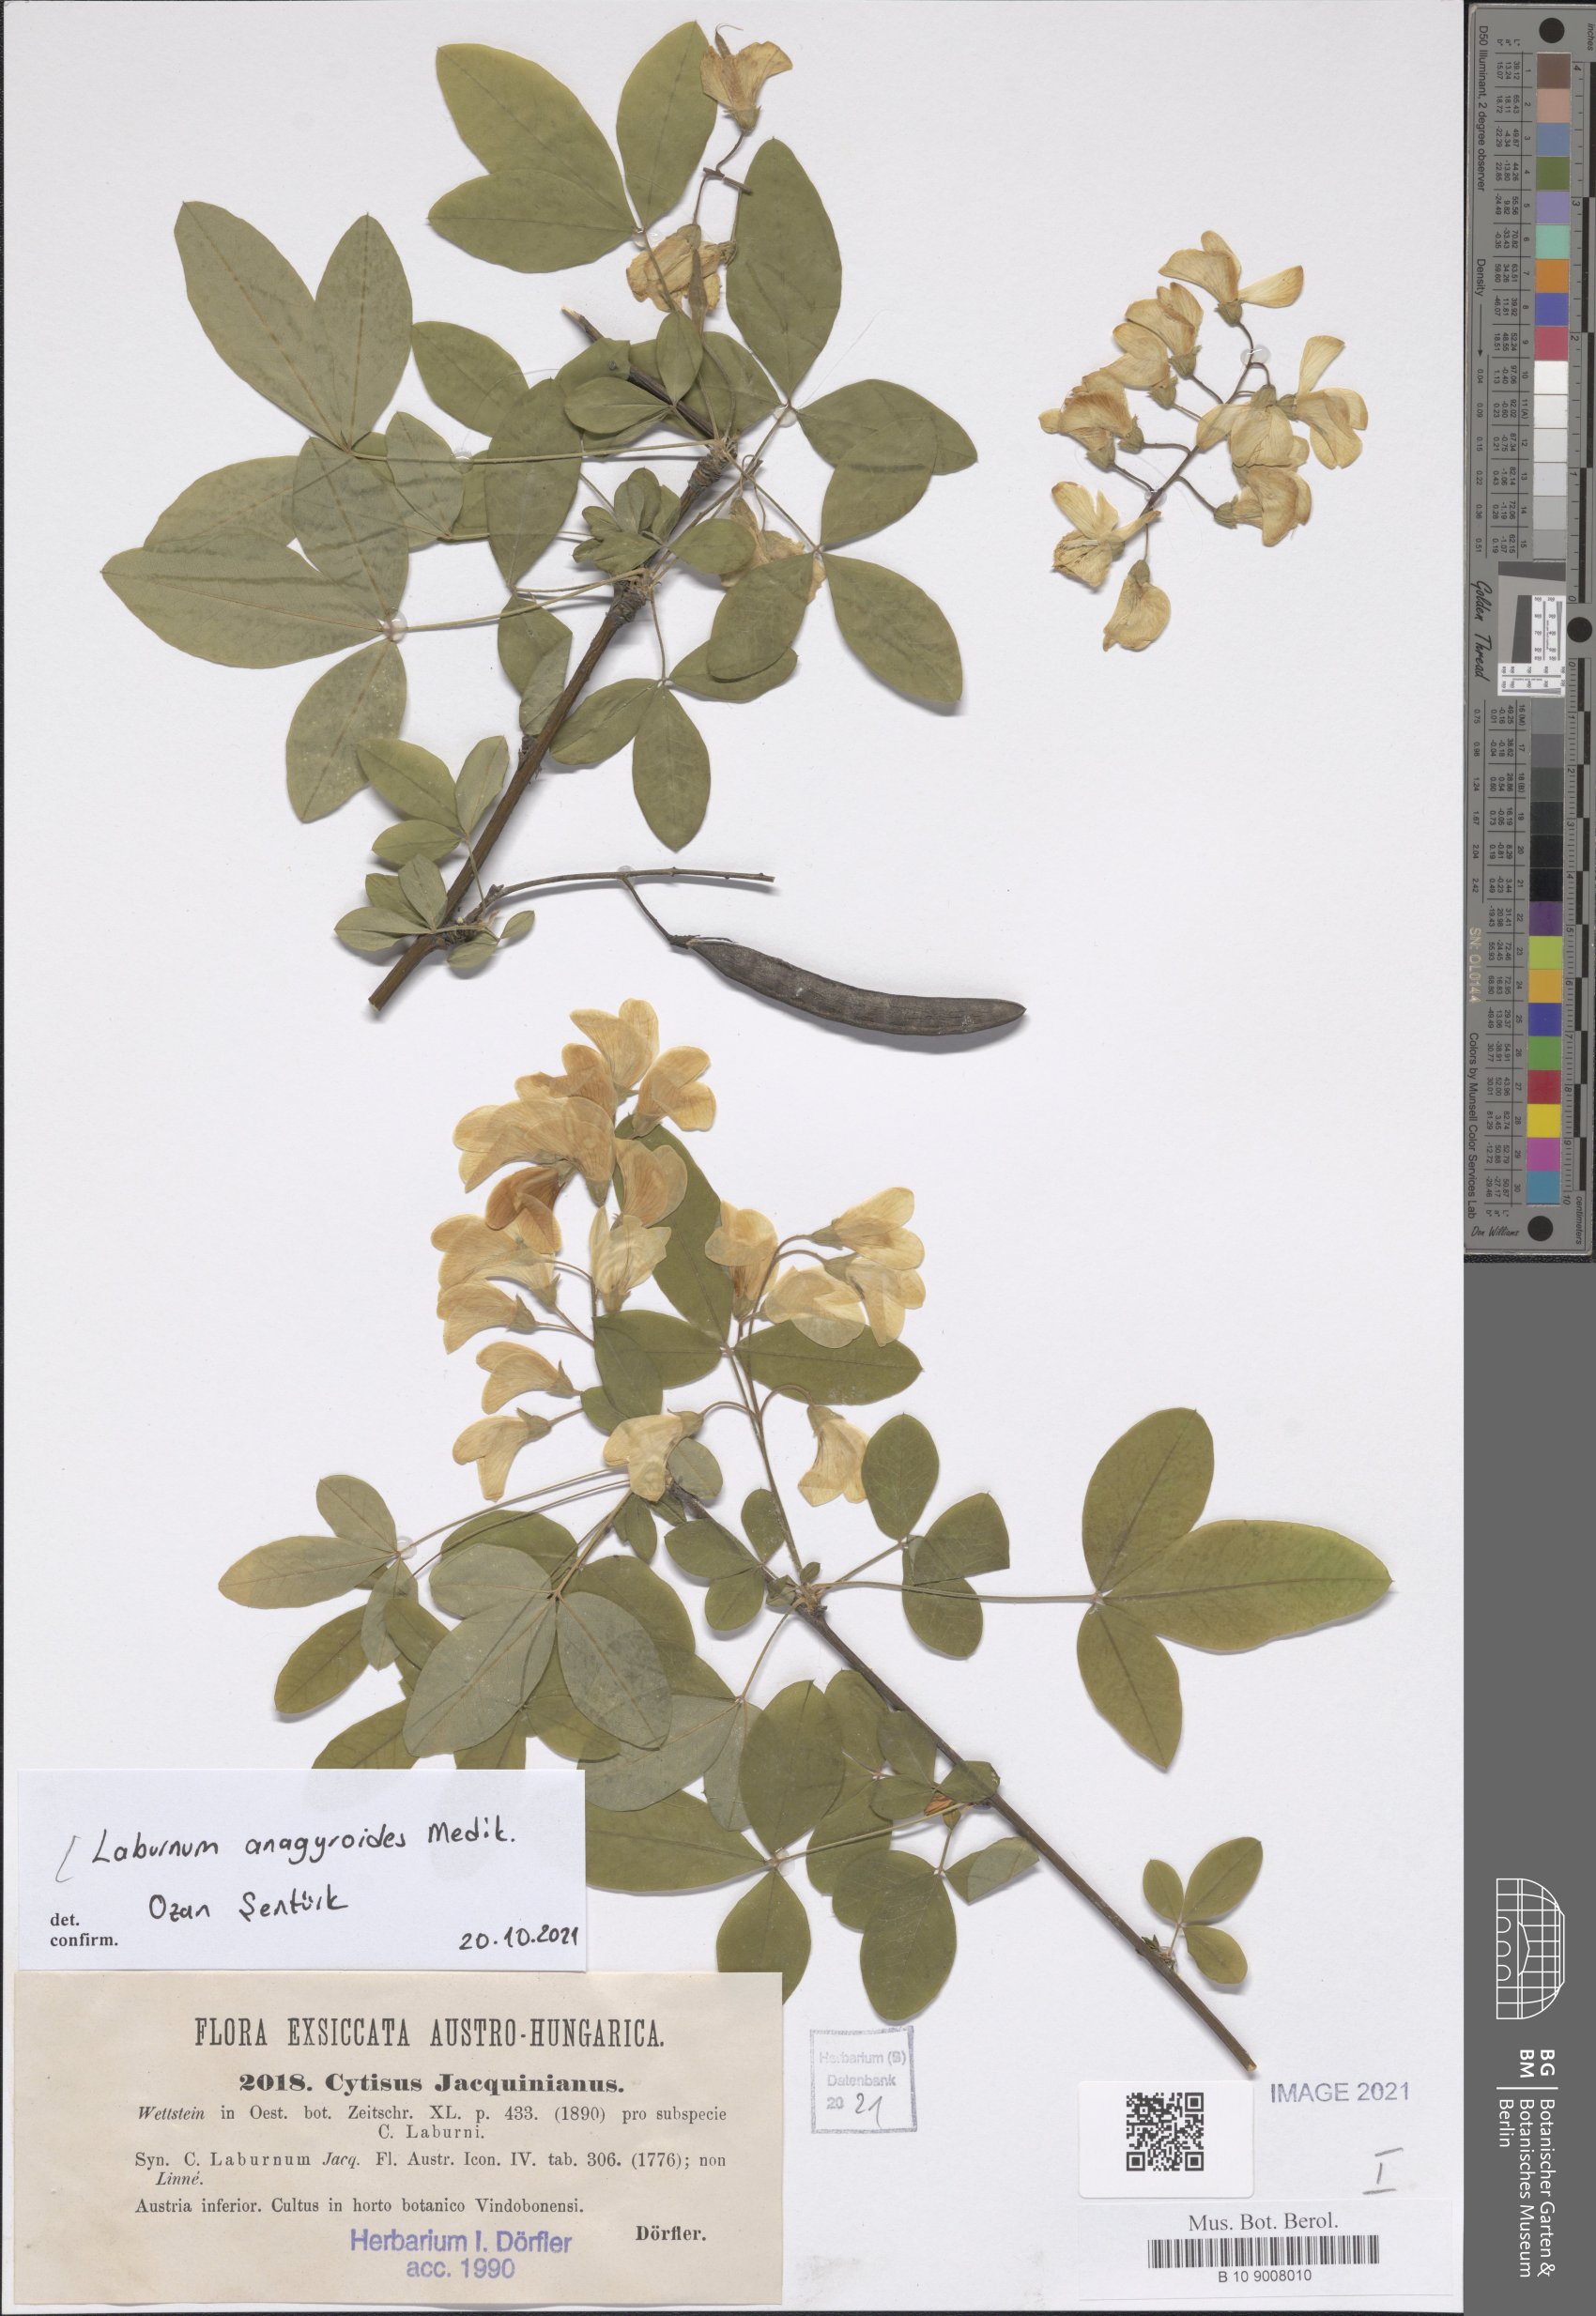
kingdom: Plantae
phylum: Tracheophyta
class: Magnoliopsida
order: Fabales
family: Fabaceae
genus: Laburnum
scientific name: Laburnum anagyroides
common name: Laburnum
